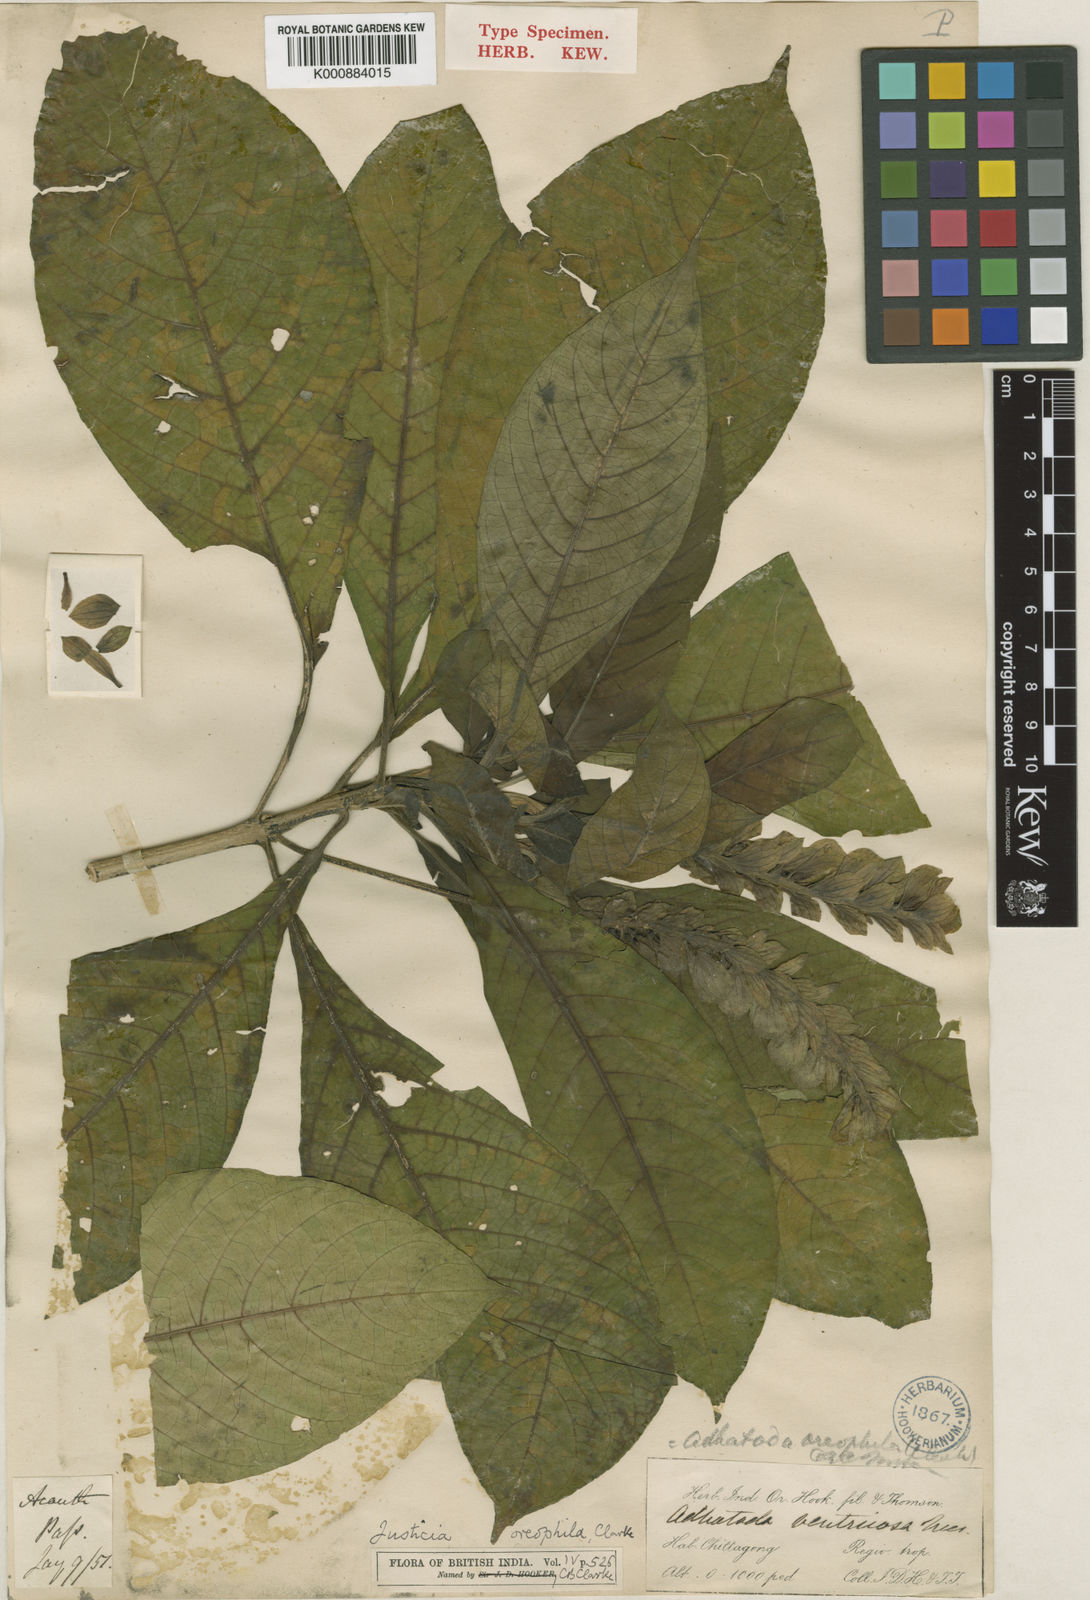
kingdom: Plantae
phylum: Tracheophyta
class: Magnoliopsida
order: Lamiales
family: Acanthaceae
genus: Justicia
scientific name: Justicia oreophila
